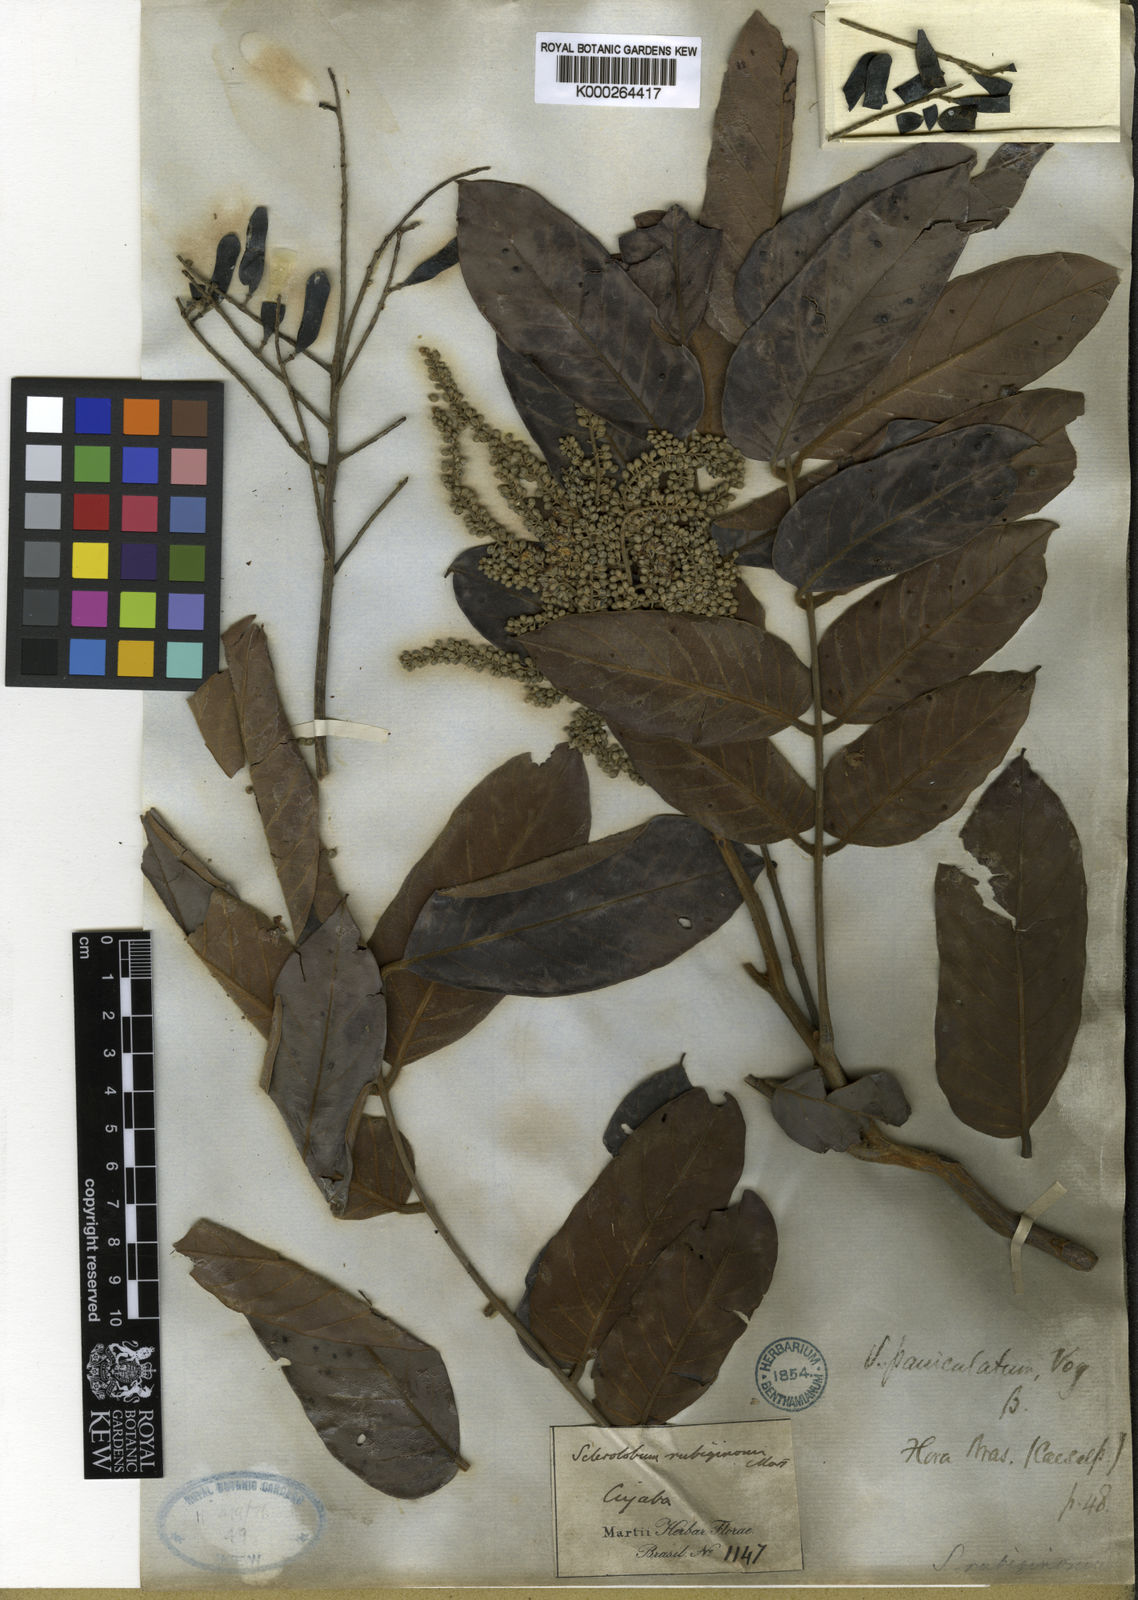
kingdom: Plantae
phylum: Tracheophyta
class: Magnoliopsida
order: Fabales
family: Fabaceae
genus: Tachigali
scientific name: Tachigali rubiginosa
